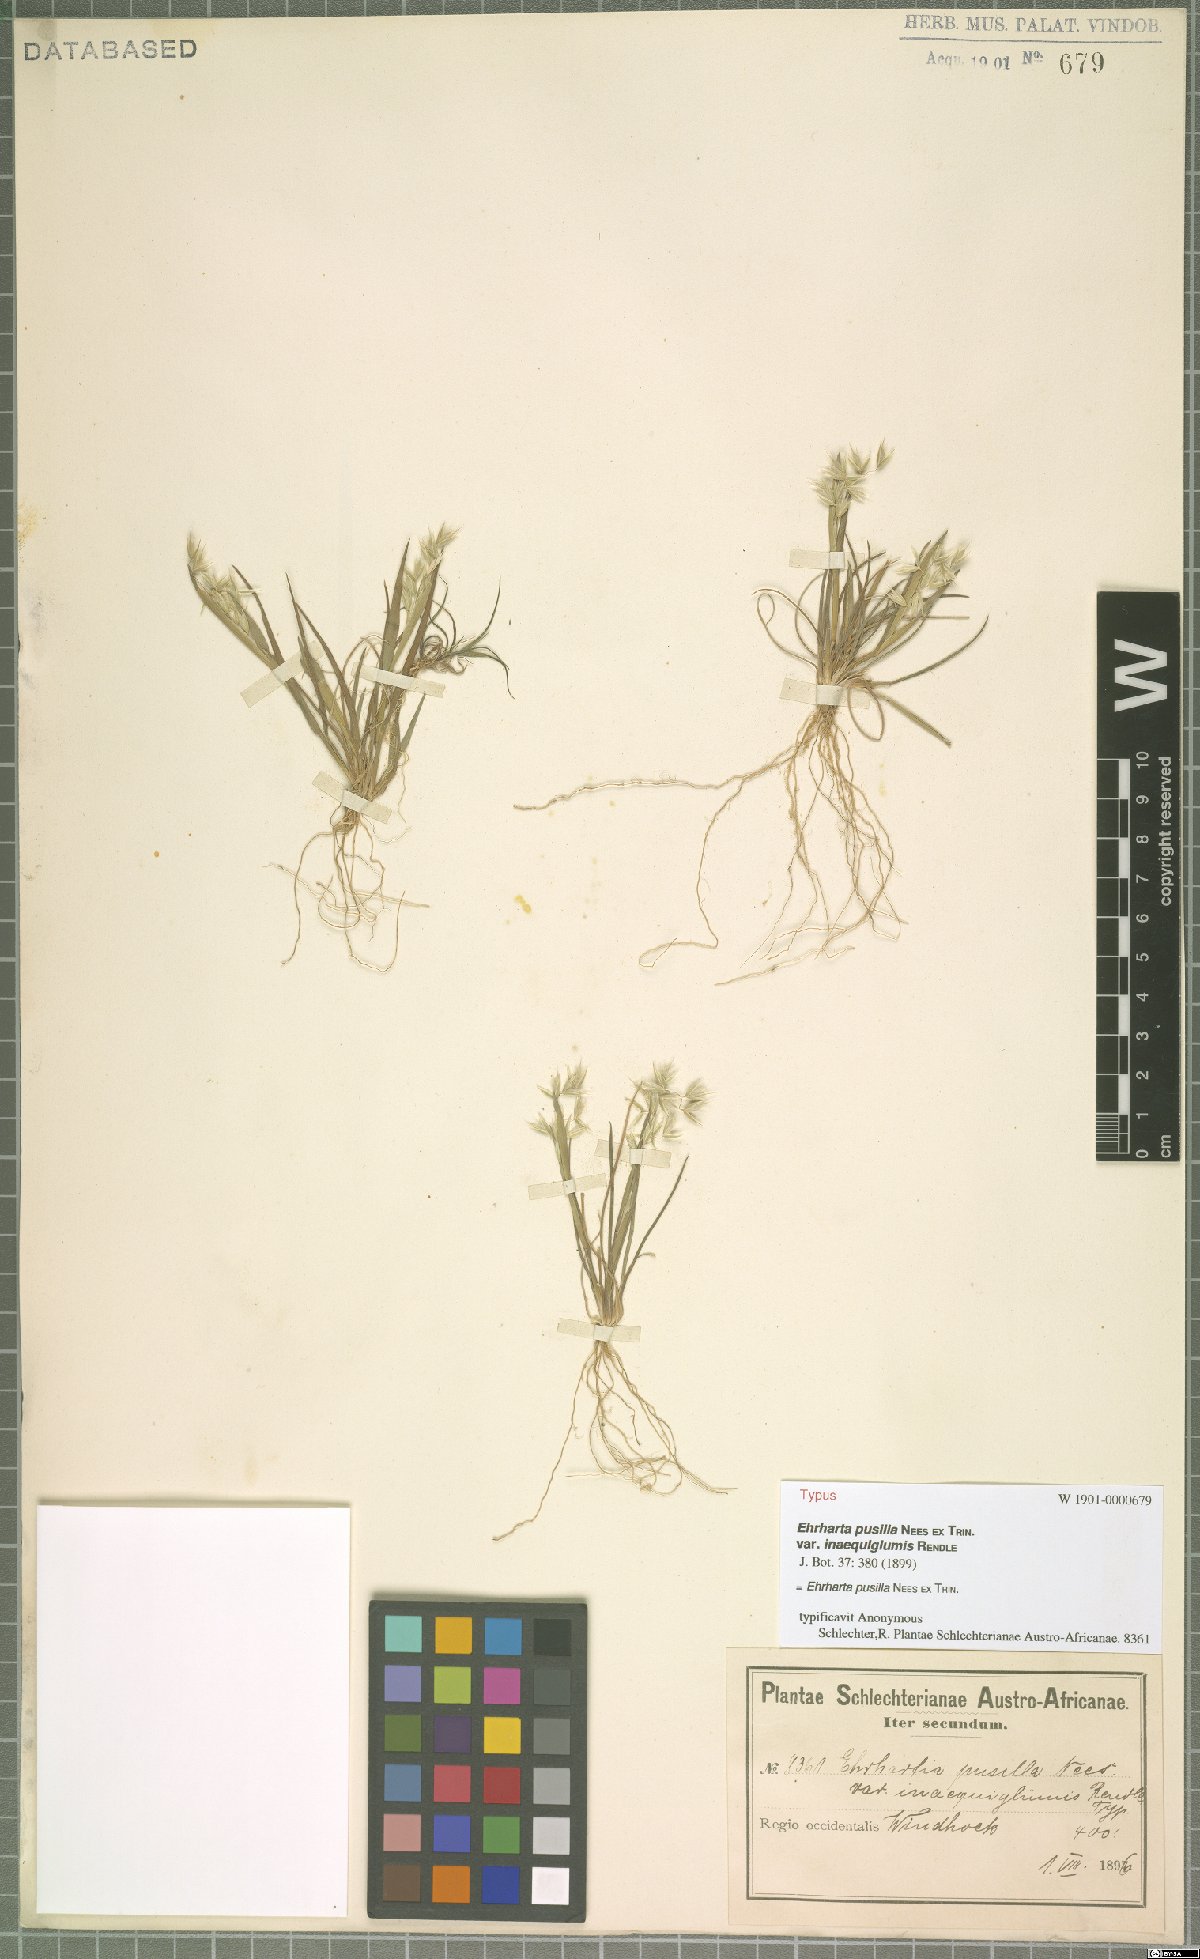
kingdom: Plantae
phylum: Tracheophyta
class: Liliopsida
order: Poales
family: Poaceae
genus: Ehrharta
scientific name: Ehrharta pusilla
